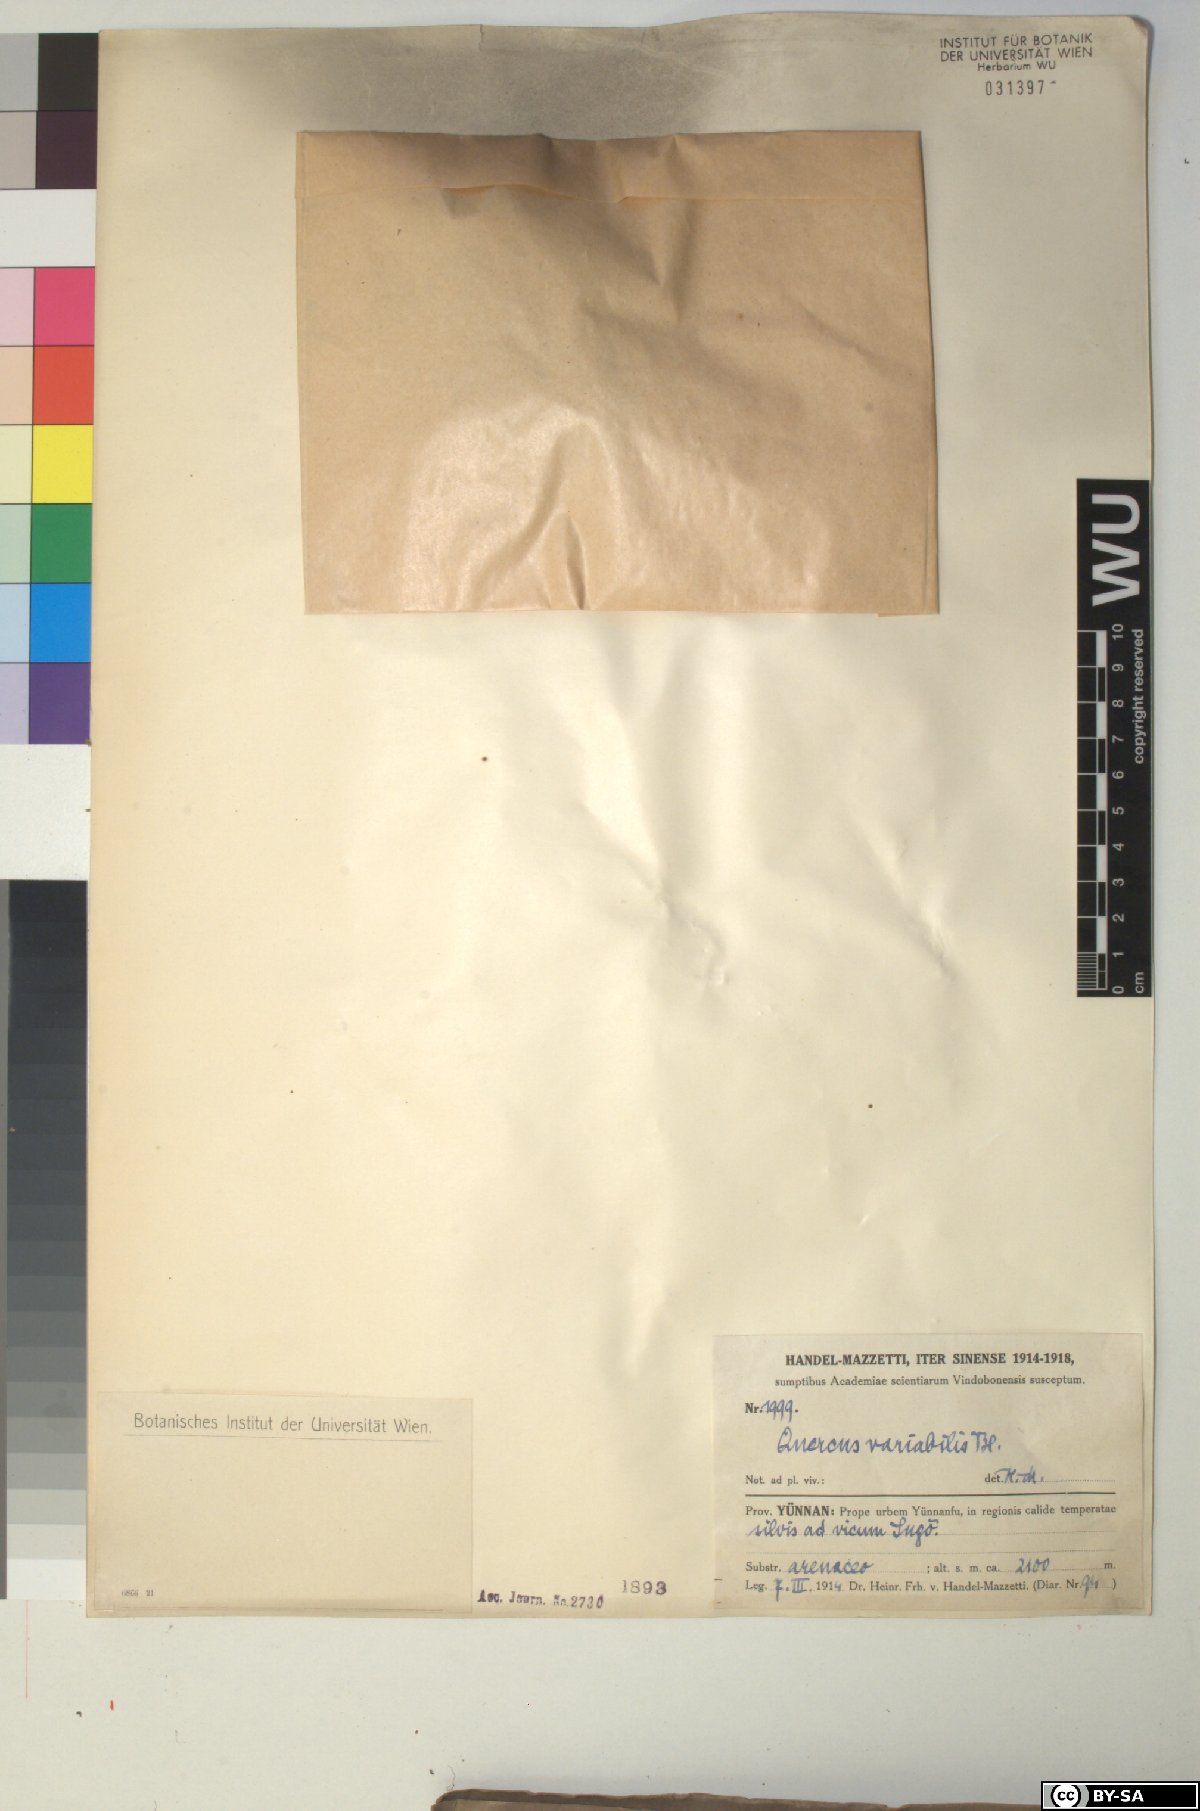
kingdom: Plantae
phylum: Tracheophyta
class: Magnoliopsida
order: Fagales
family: Fagaceae
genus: Quercus
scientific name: Quercus variabilis
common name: Chinese cork oak
